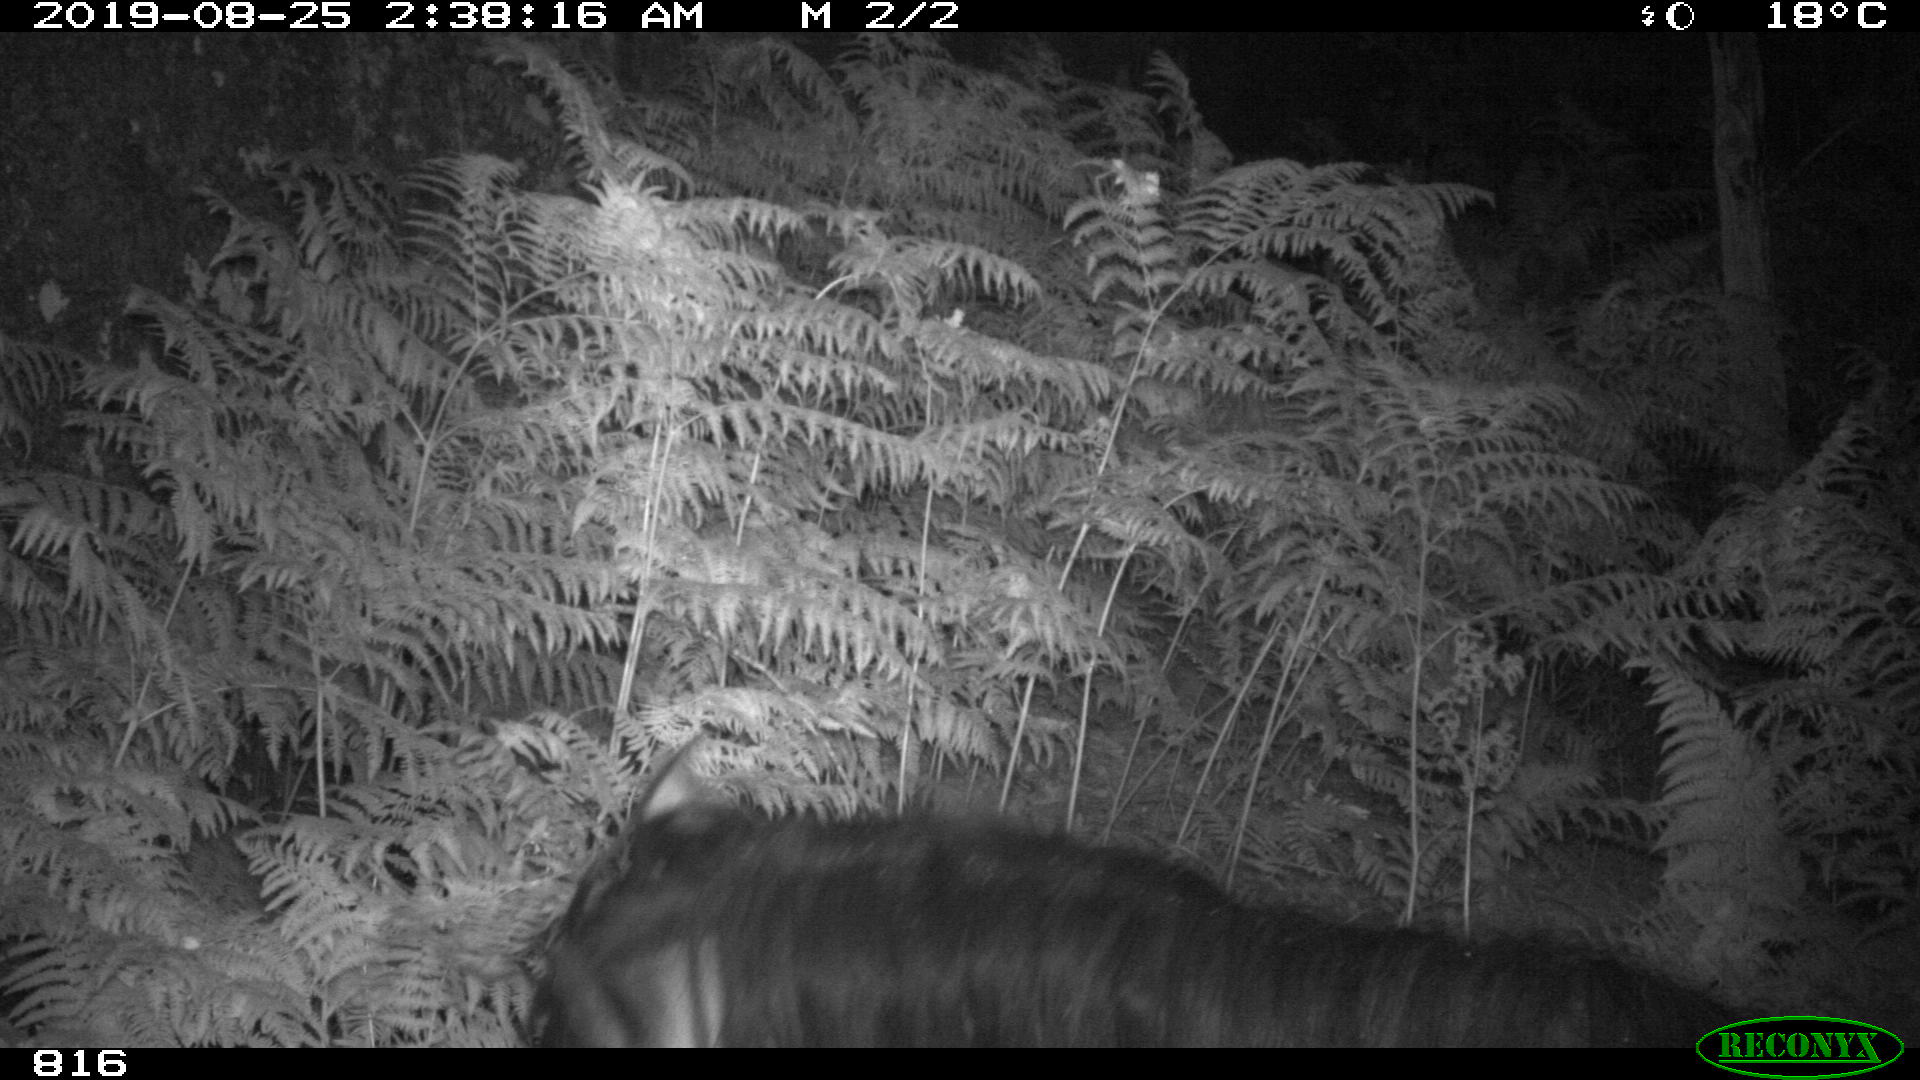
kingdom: Animalia
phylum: Chordata
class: Mammalia
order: Perissodactyla
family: Equidae
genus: Equus
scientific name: Equus caballus
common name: Horse
